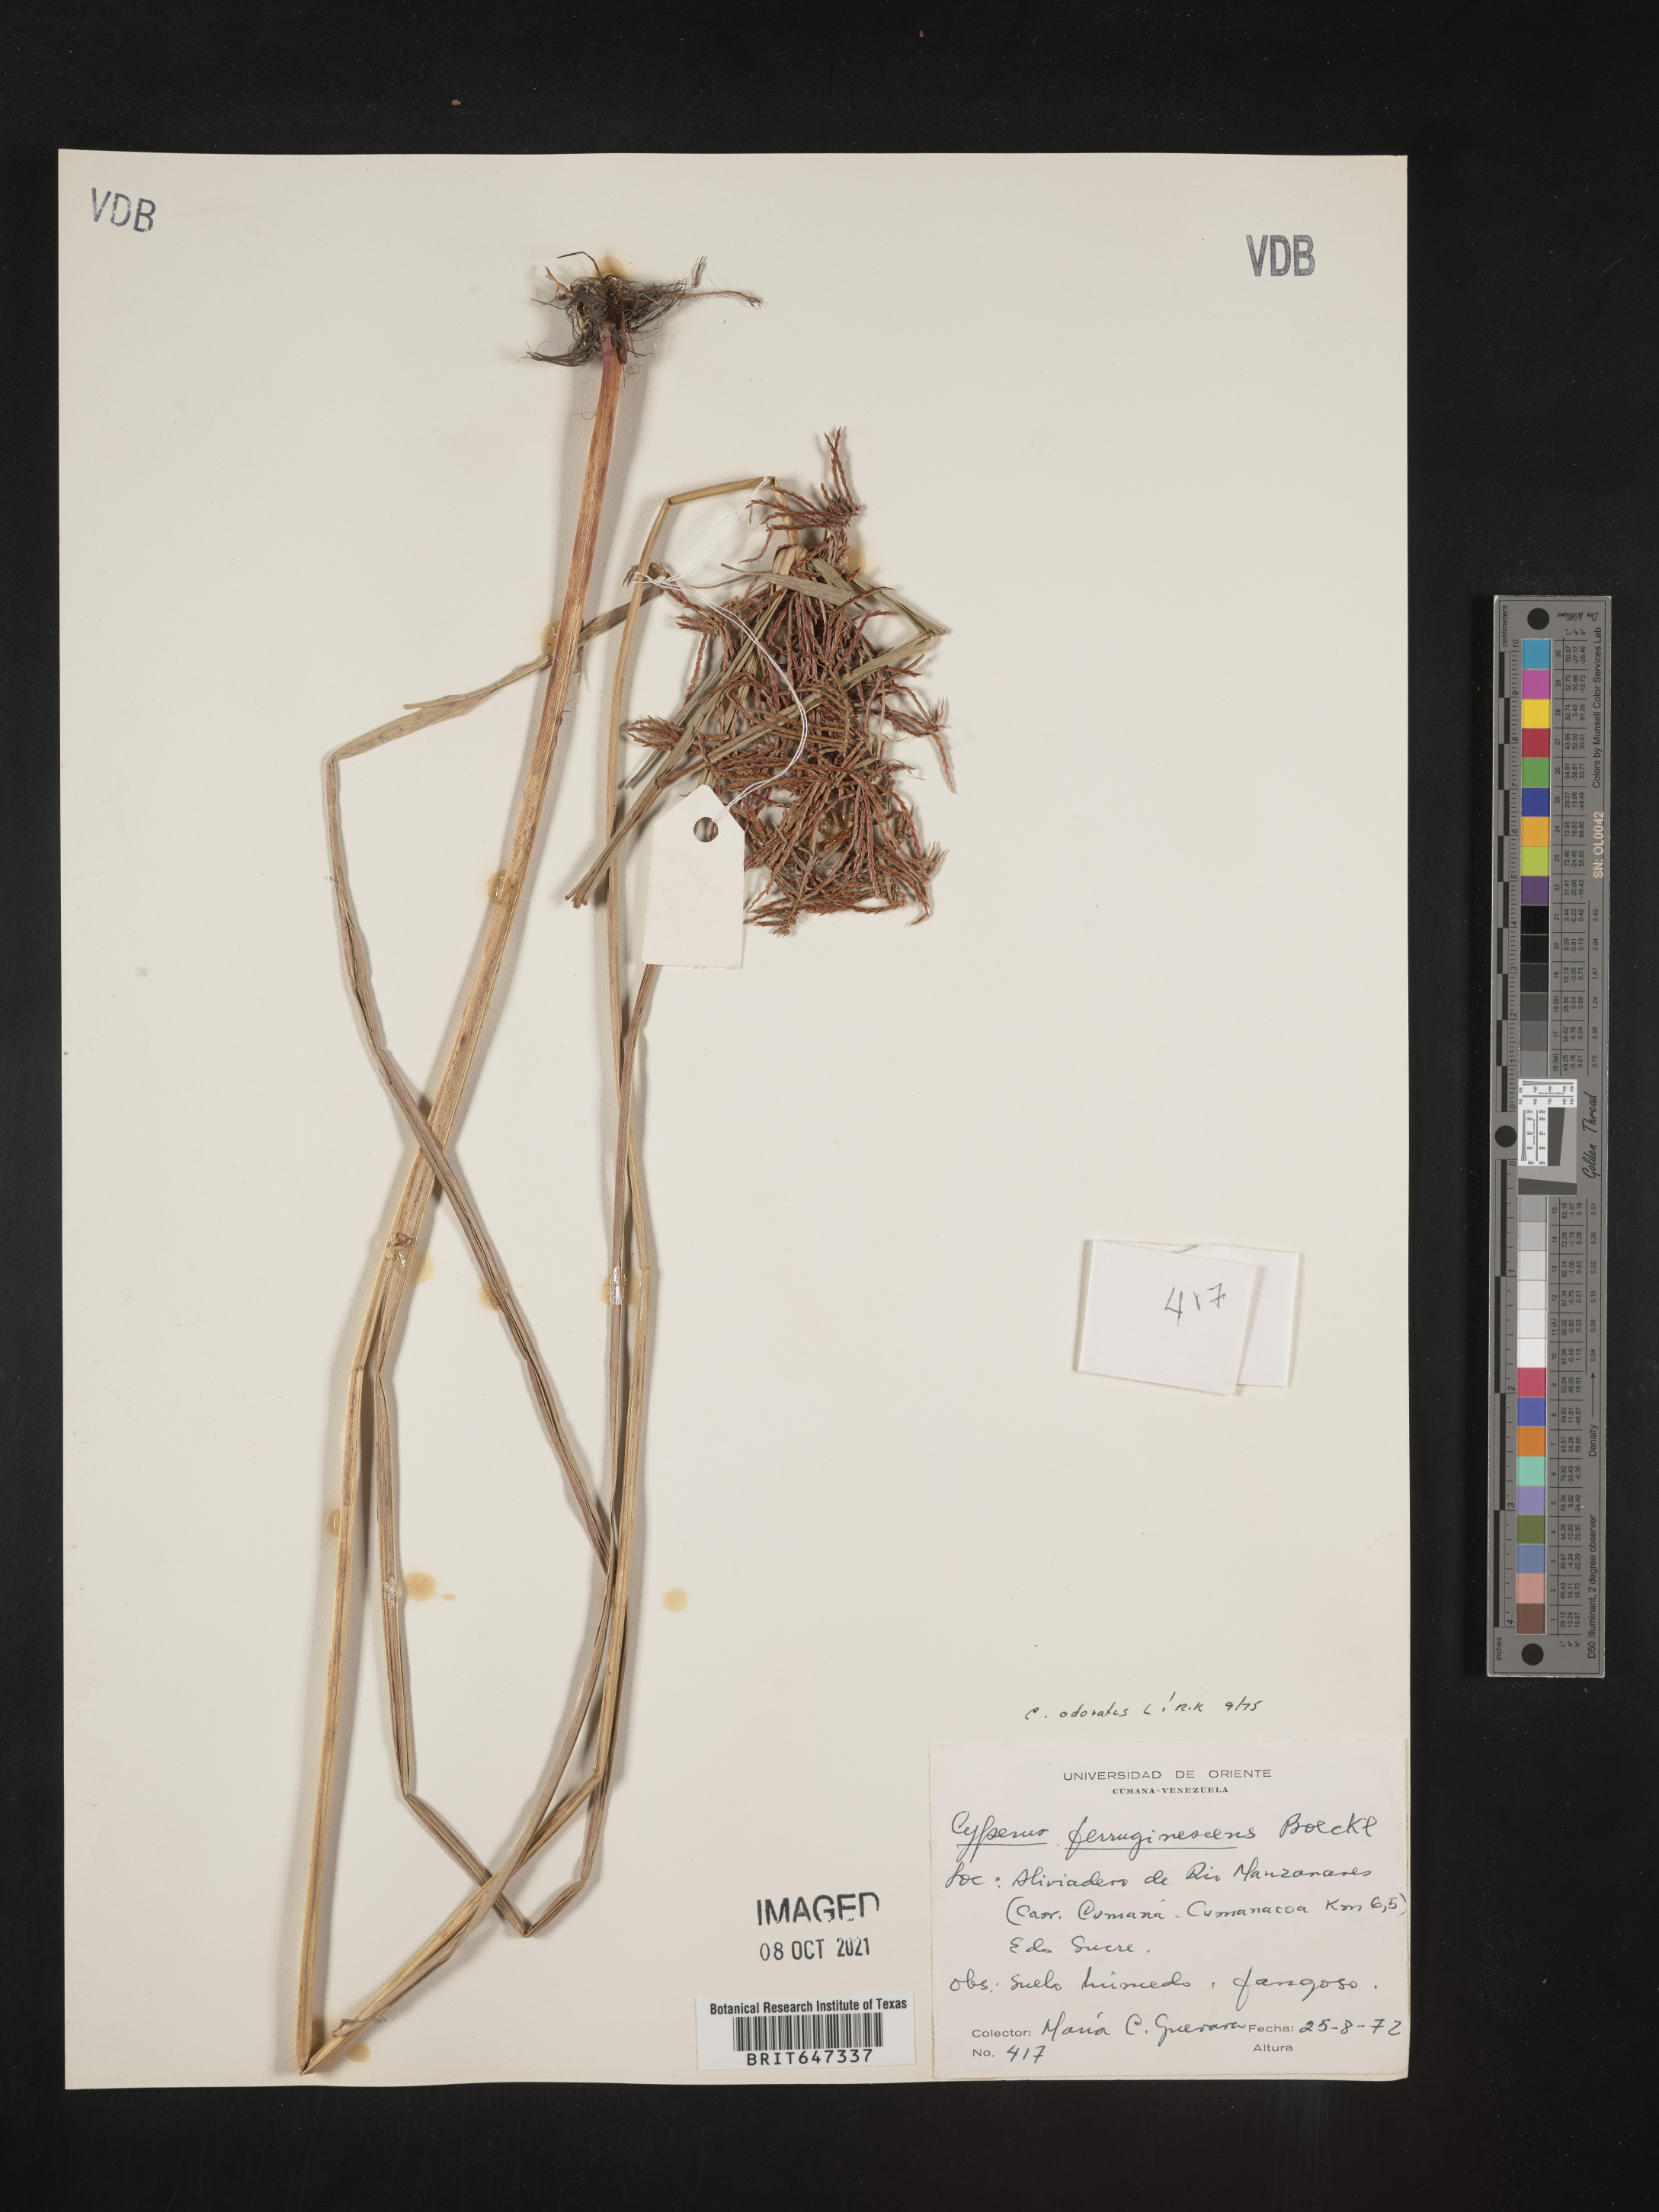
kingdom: Plantae
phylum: Tracheophyta
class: Liliopsida
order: Poales
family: Cyperaceae
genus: Cyperus
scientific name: Cyperus odoratus
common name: Fragrant flatsedge
